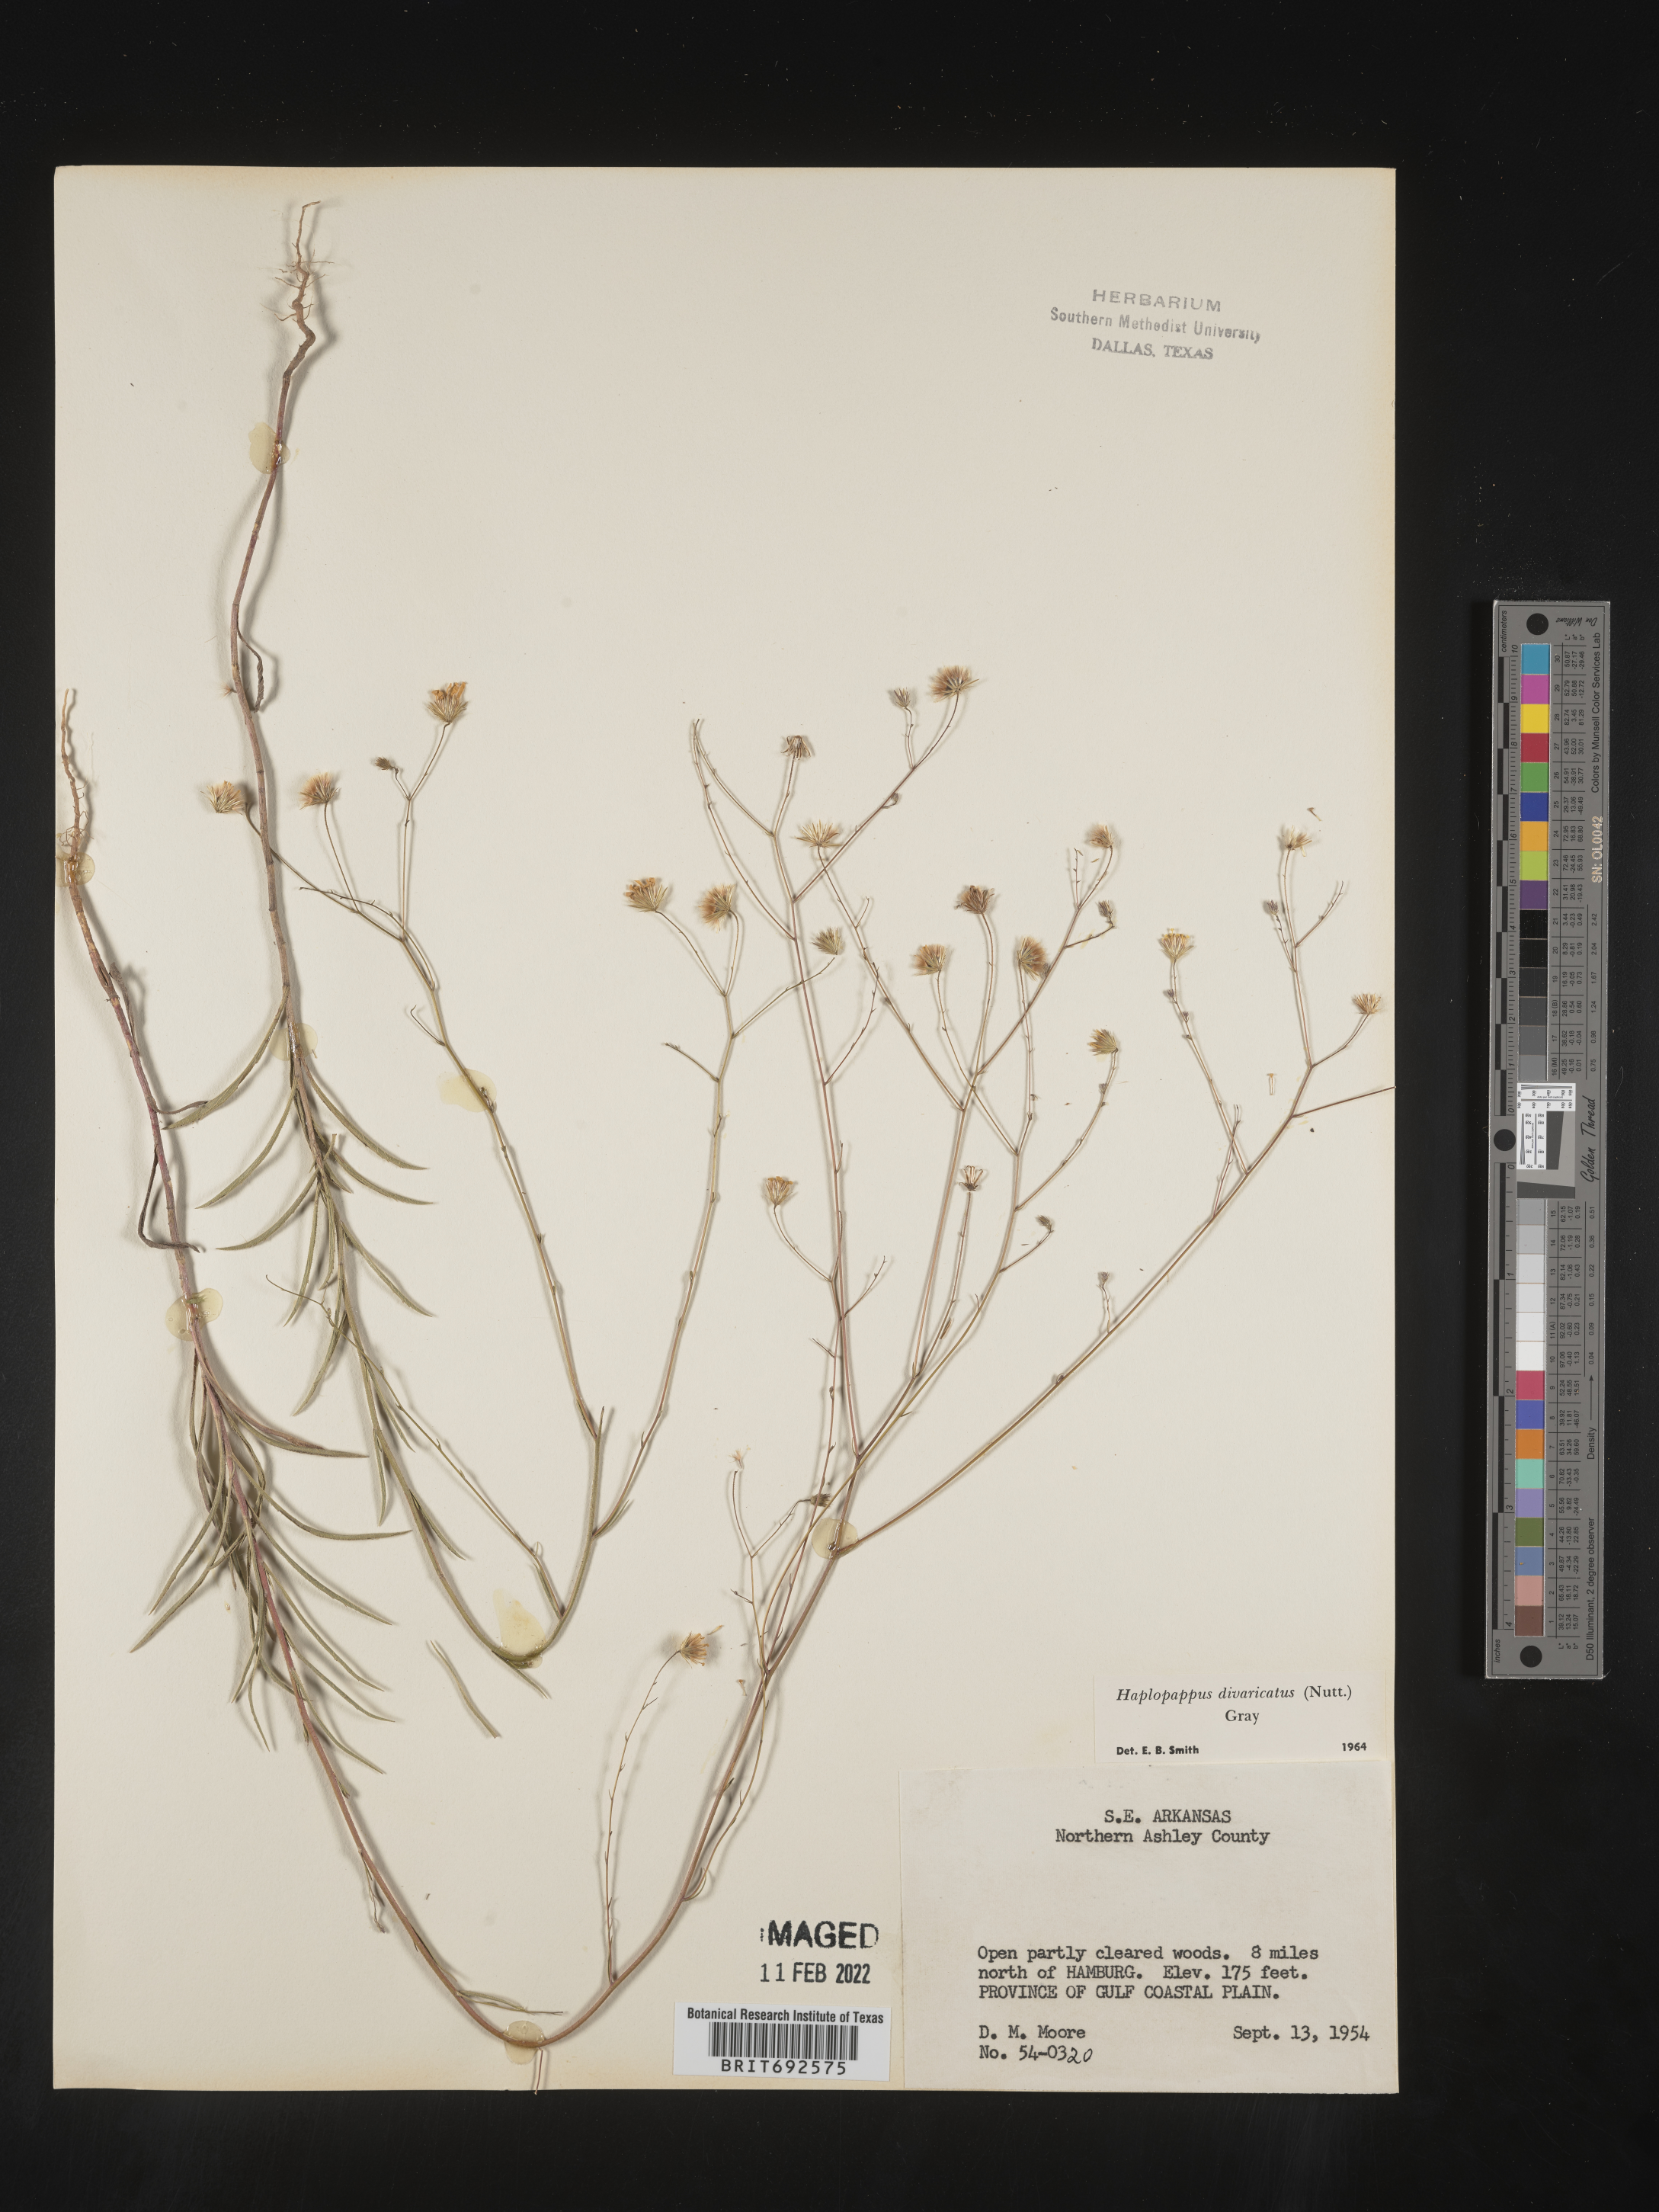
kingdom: Plantae
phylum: Tracheophyta
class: Magnoliopsida
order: Asterales
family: Asteraceae
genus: Croptilon
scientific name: Croptilon divaricatum
